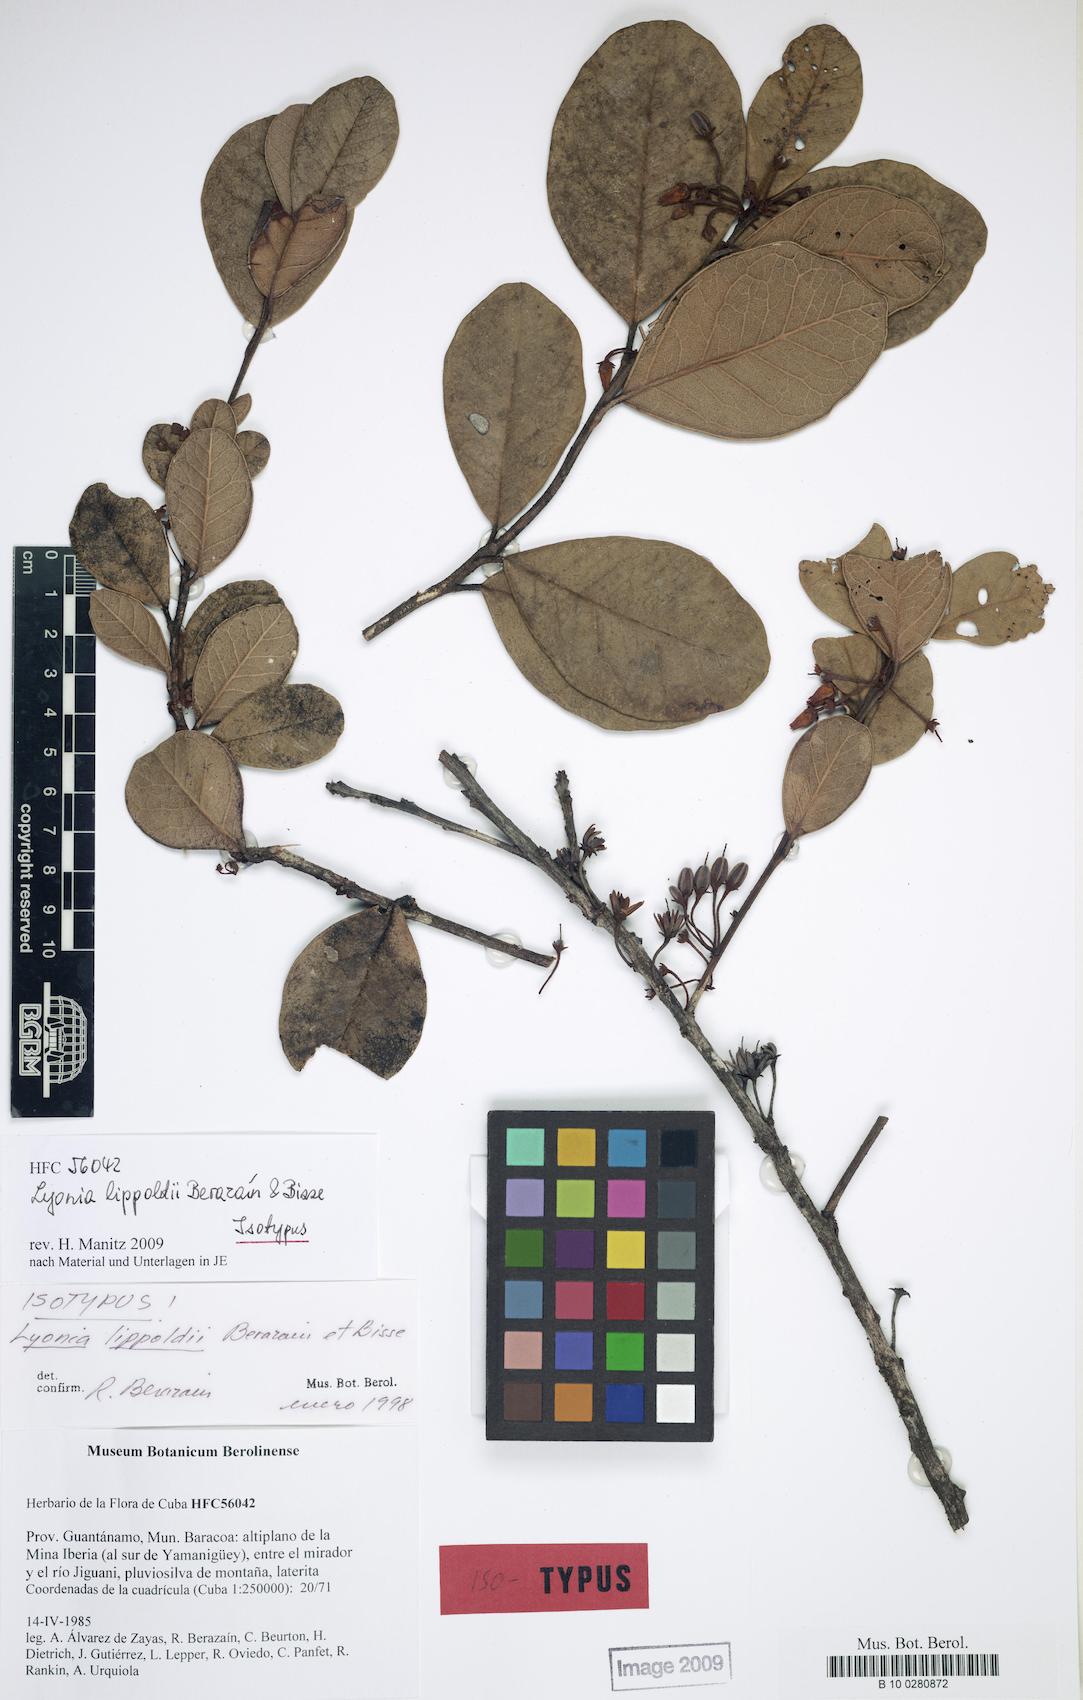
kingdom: Plantae
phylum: Tracheophyta
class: Magnoliopsida
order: Ericales
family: Ericaceae
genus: Lyonia
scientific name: Lyonia obtusa
